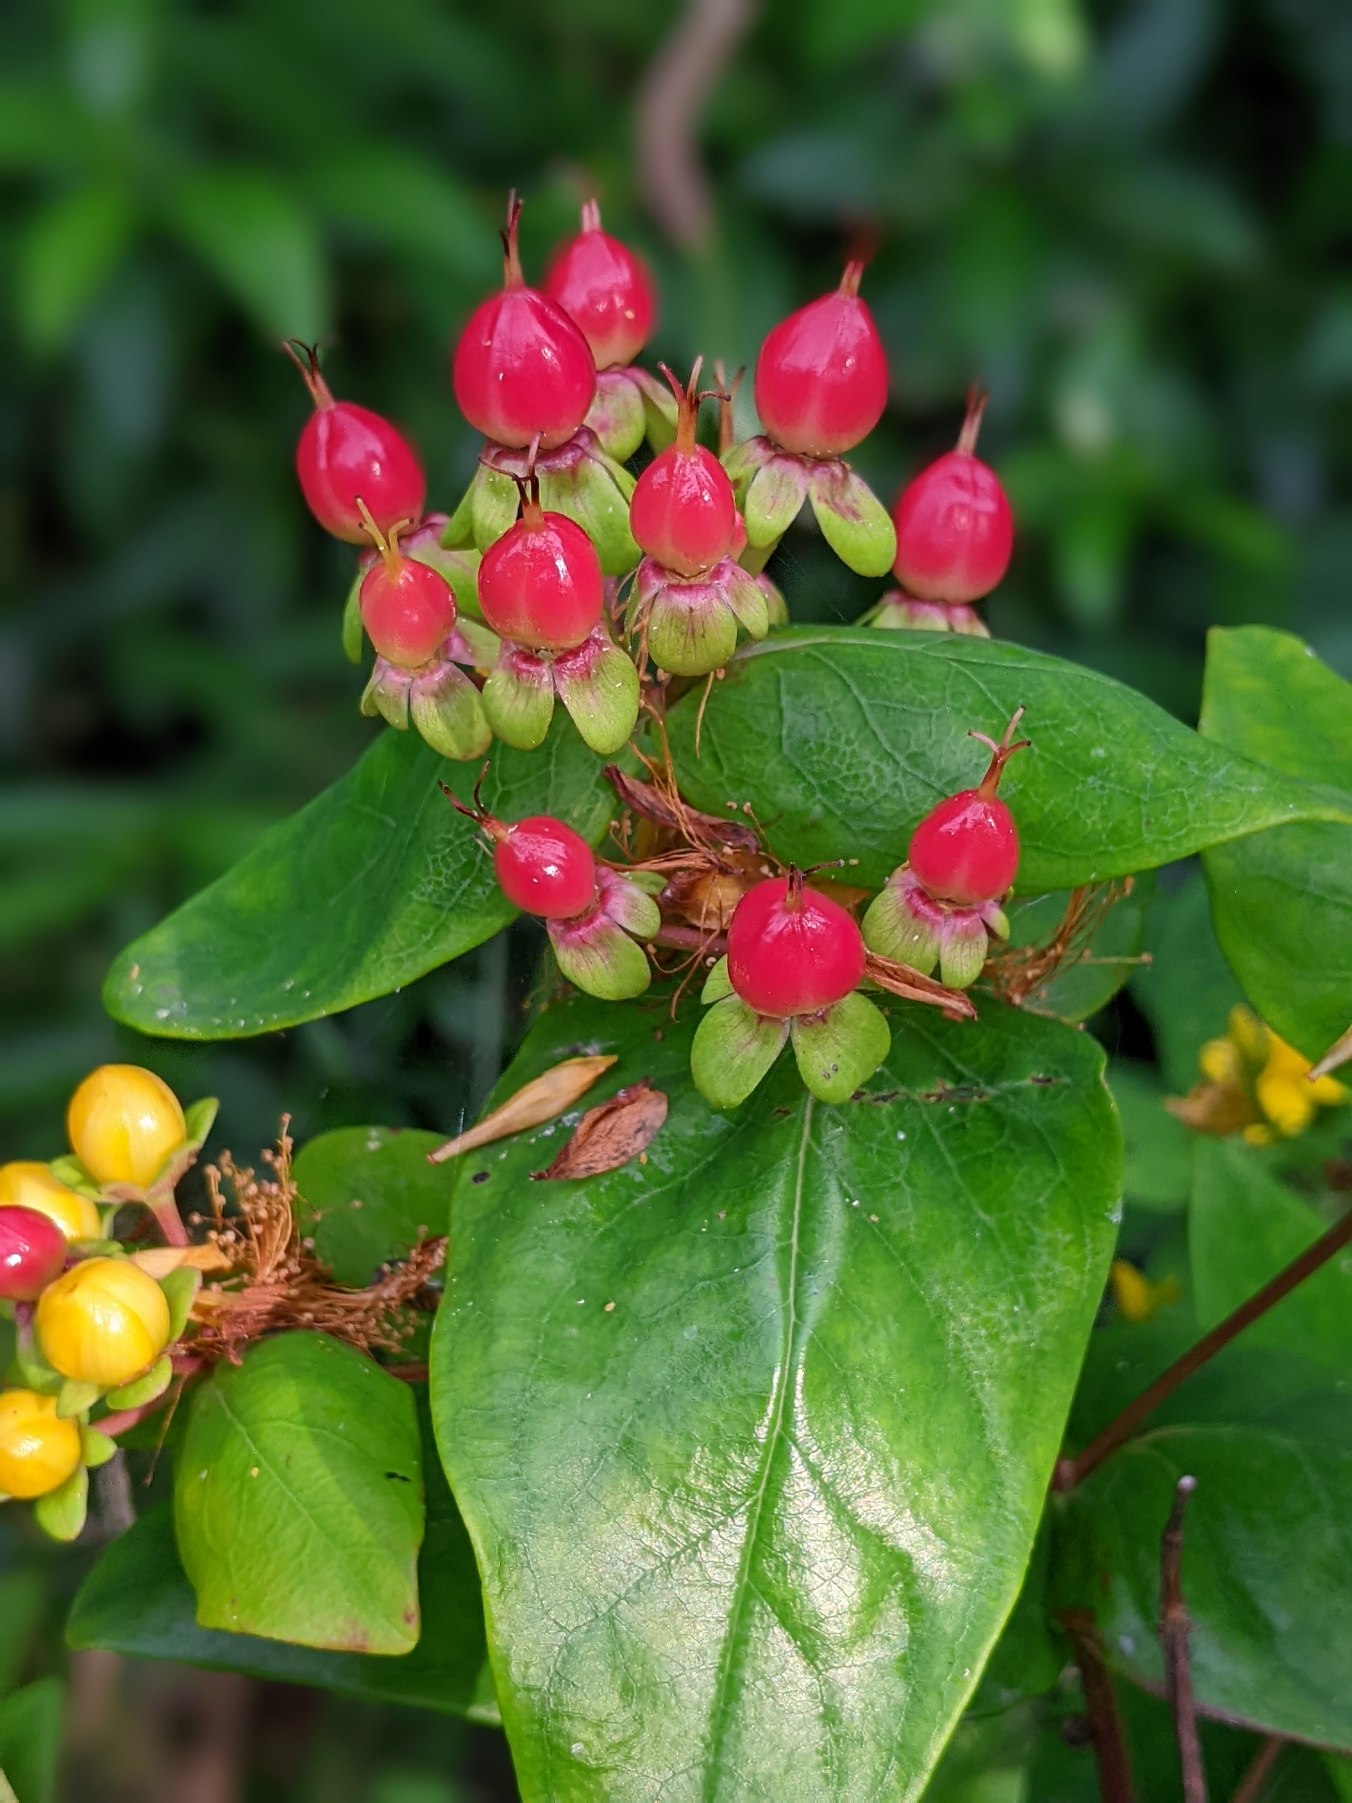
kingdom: Plantae
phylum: Tracheophyta
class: Magnoliopsida
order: Malpighiales
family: Hypericaceae
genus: Hypericum
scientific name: Hypericum inodorum
